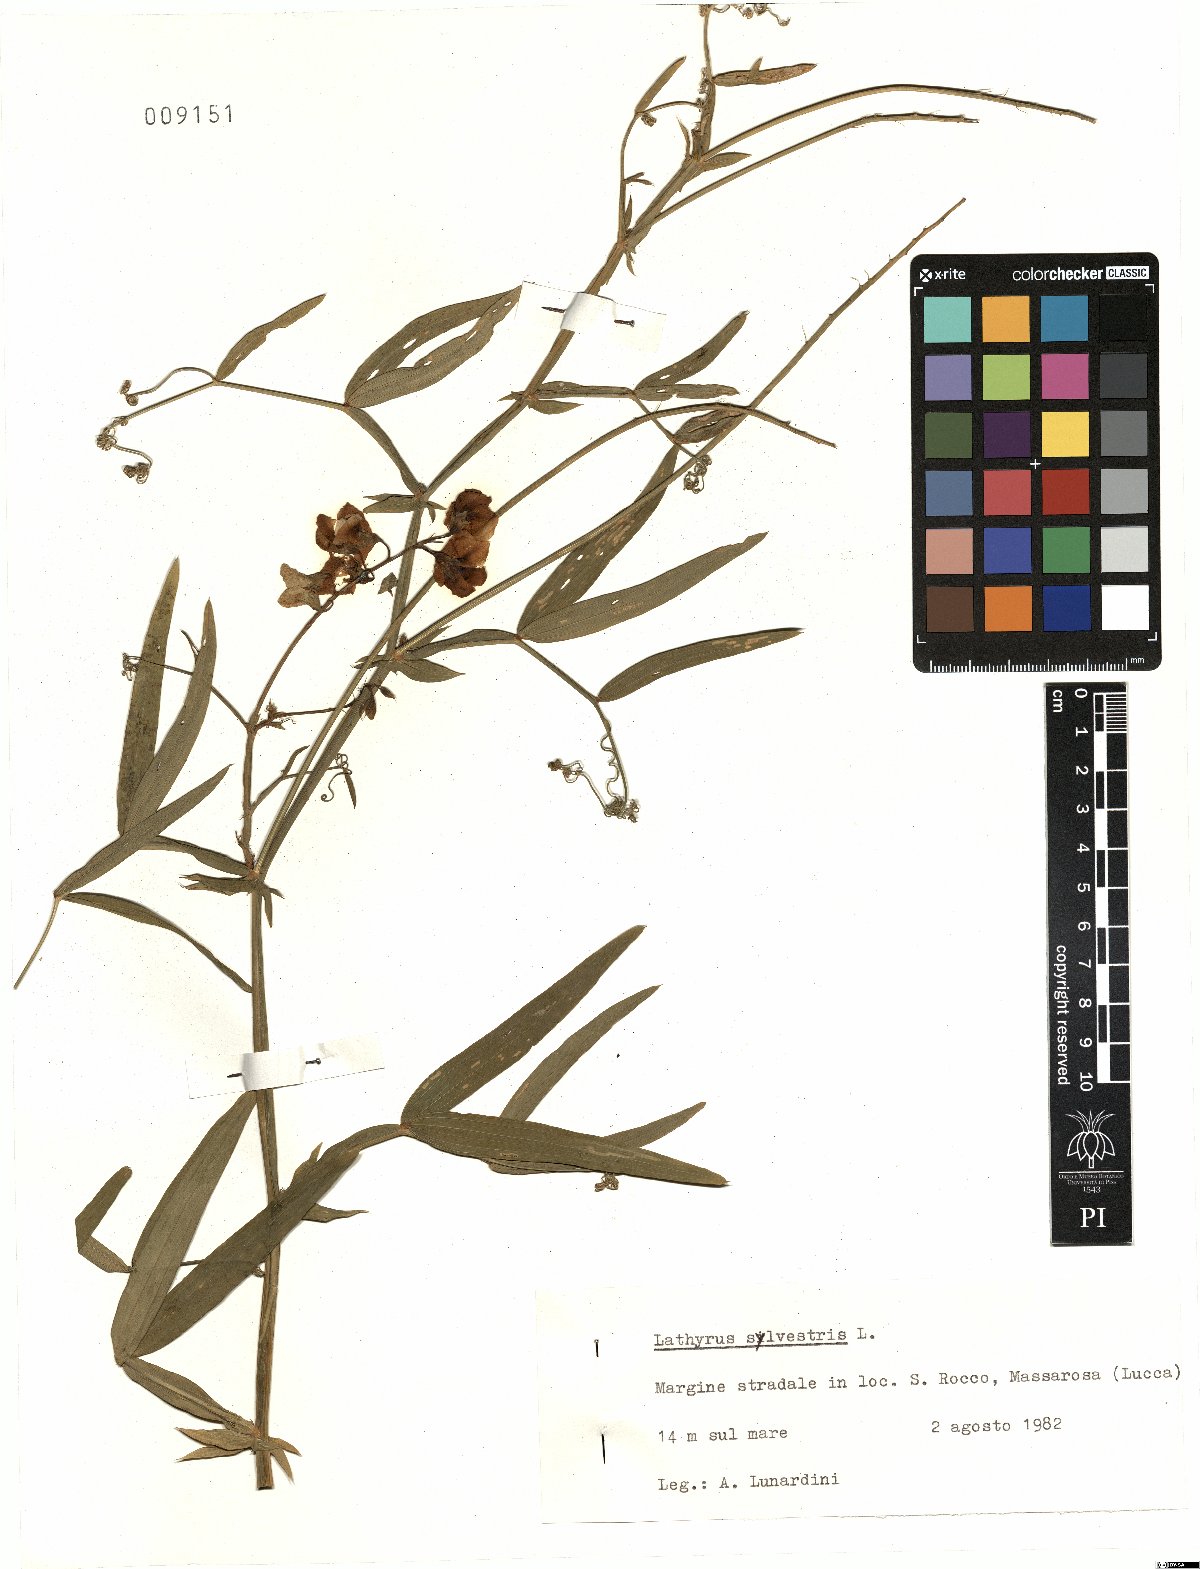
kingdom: Plantae
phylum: Tracheophyta
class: Magnoliopsida
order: Fabales
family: Fabaceae
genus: Lathyrus
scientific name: Lathyrus sylvestris
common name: Flat pea
